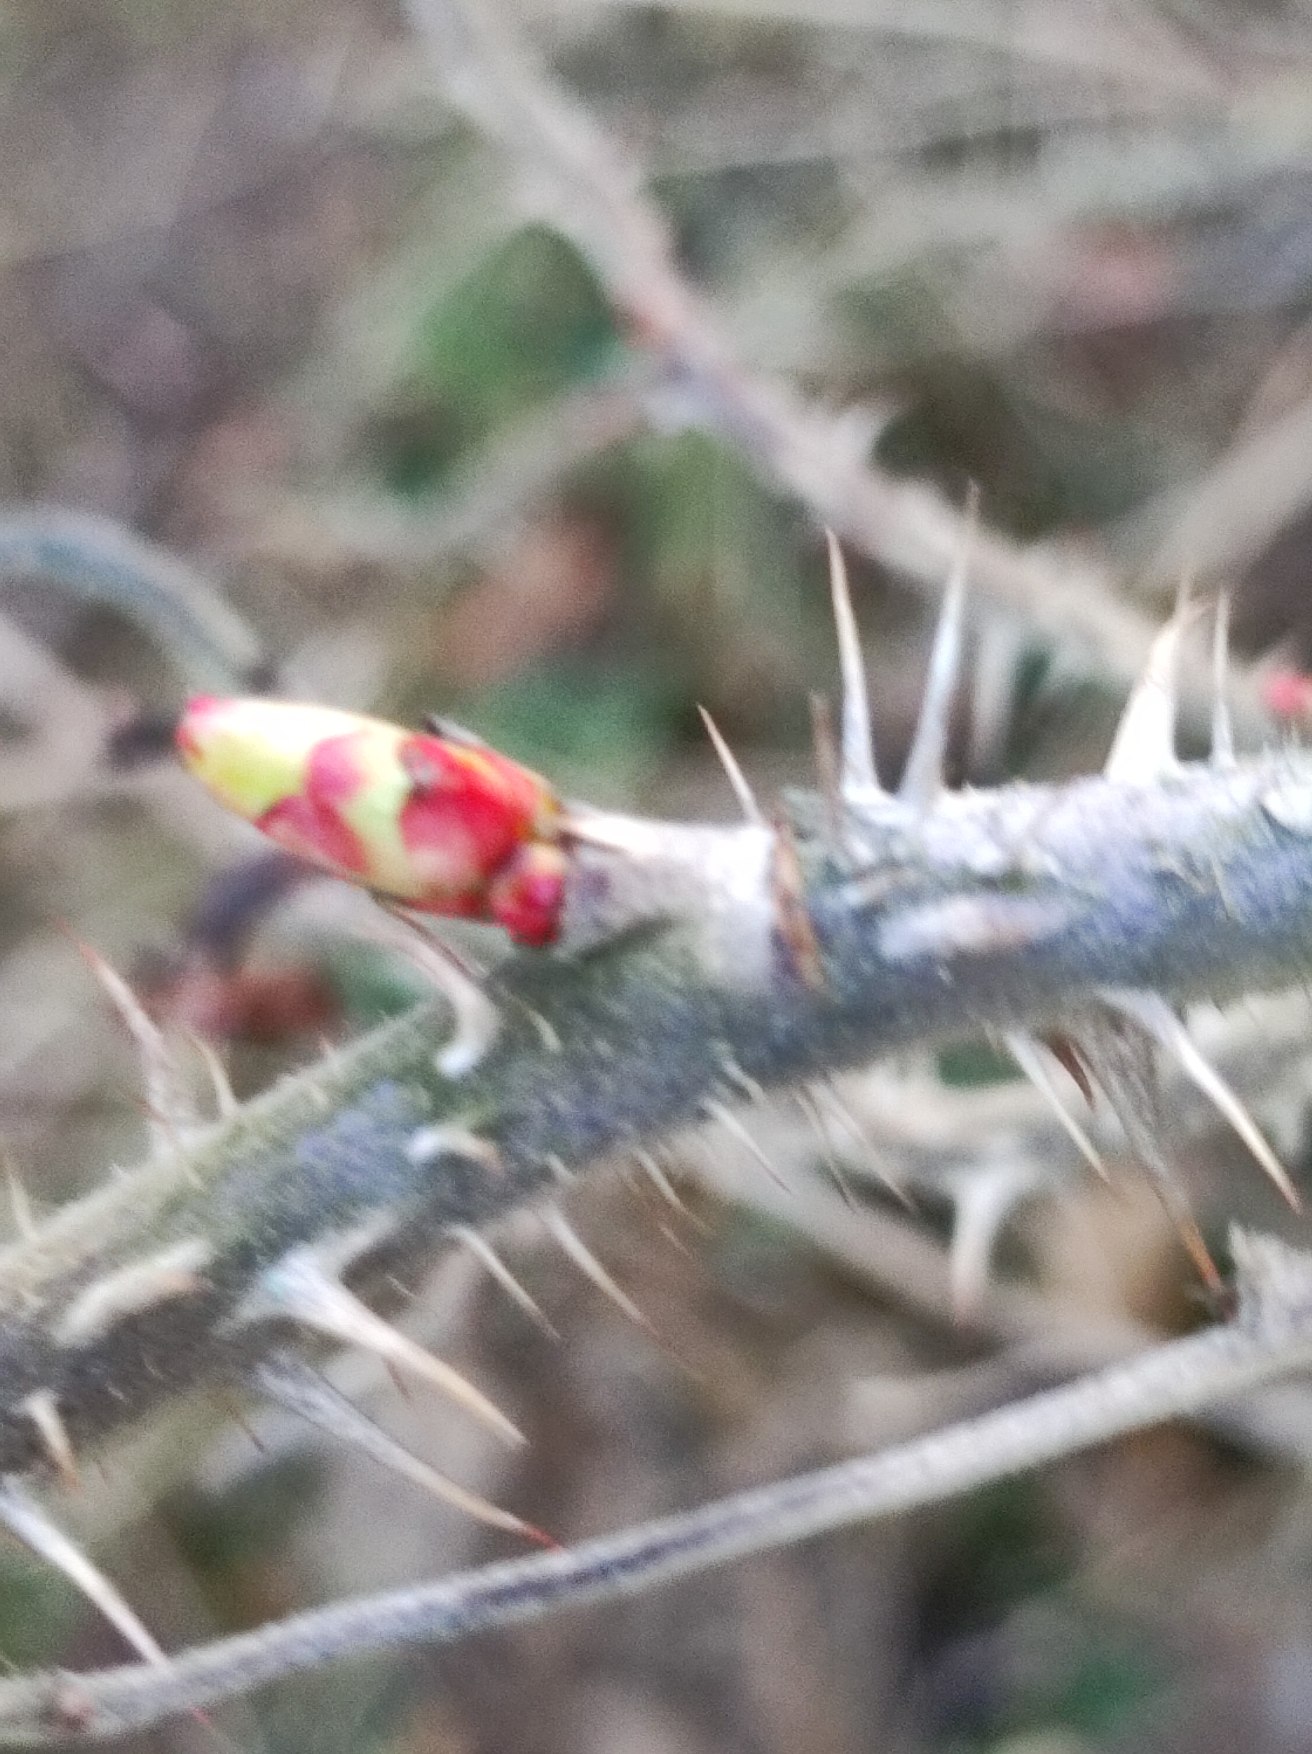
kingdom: Plantae
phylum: Tracheophyta
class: Magnoliopsida
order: Rosales
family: Rosaceae
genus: Rosa
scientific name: Rosa rugosa
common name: Rynket rose
